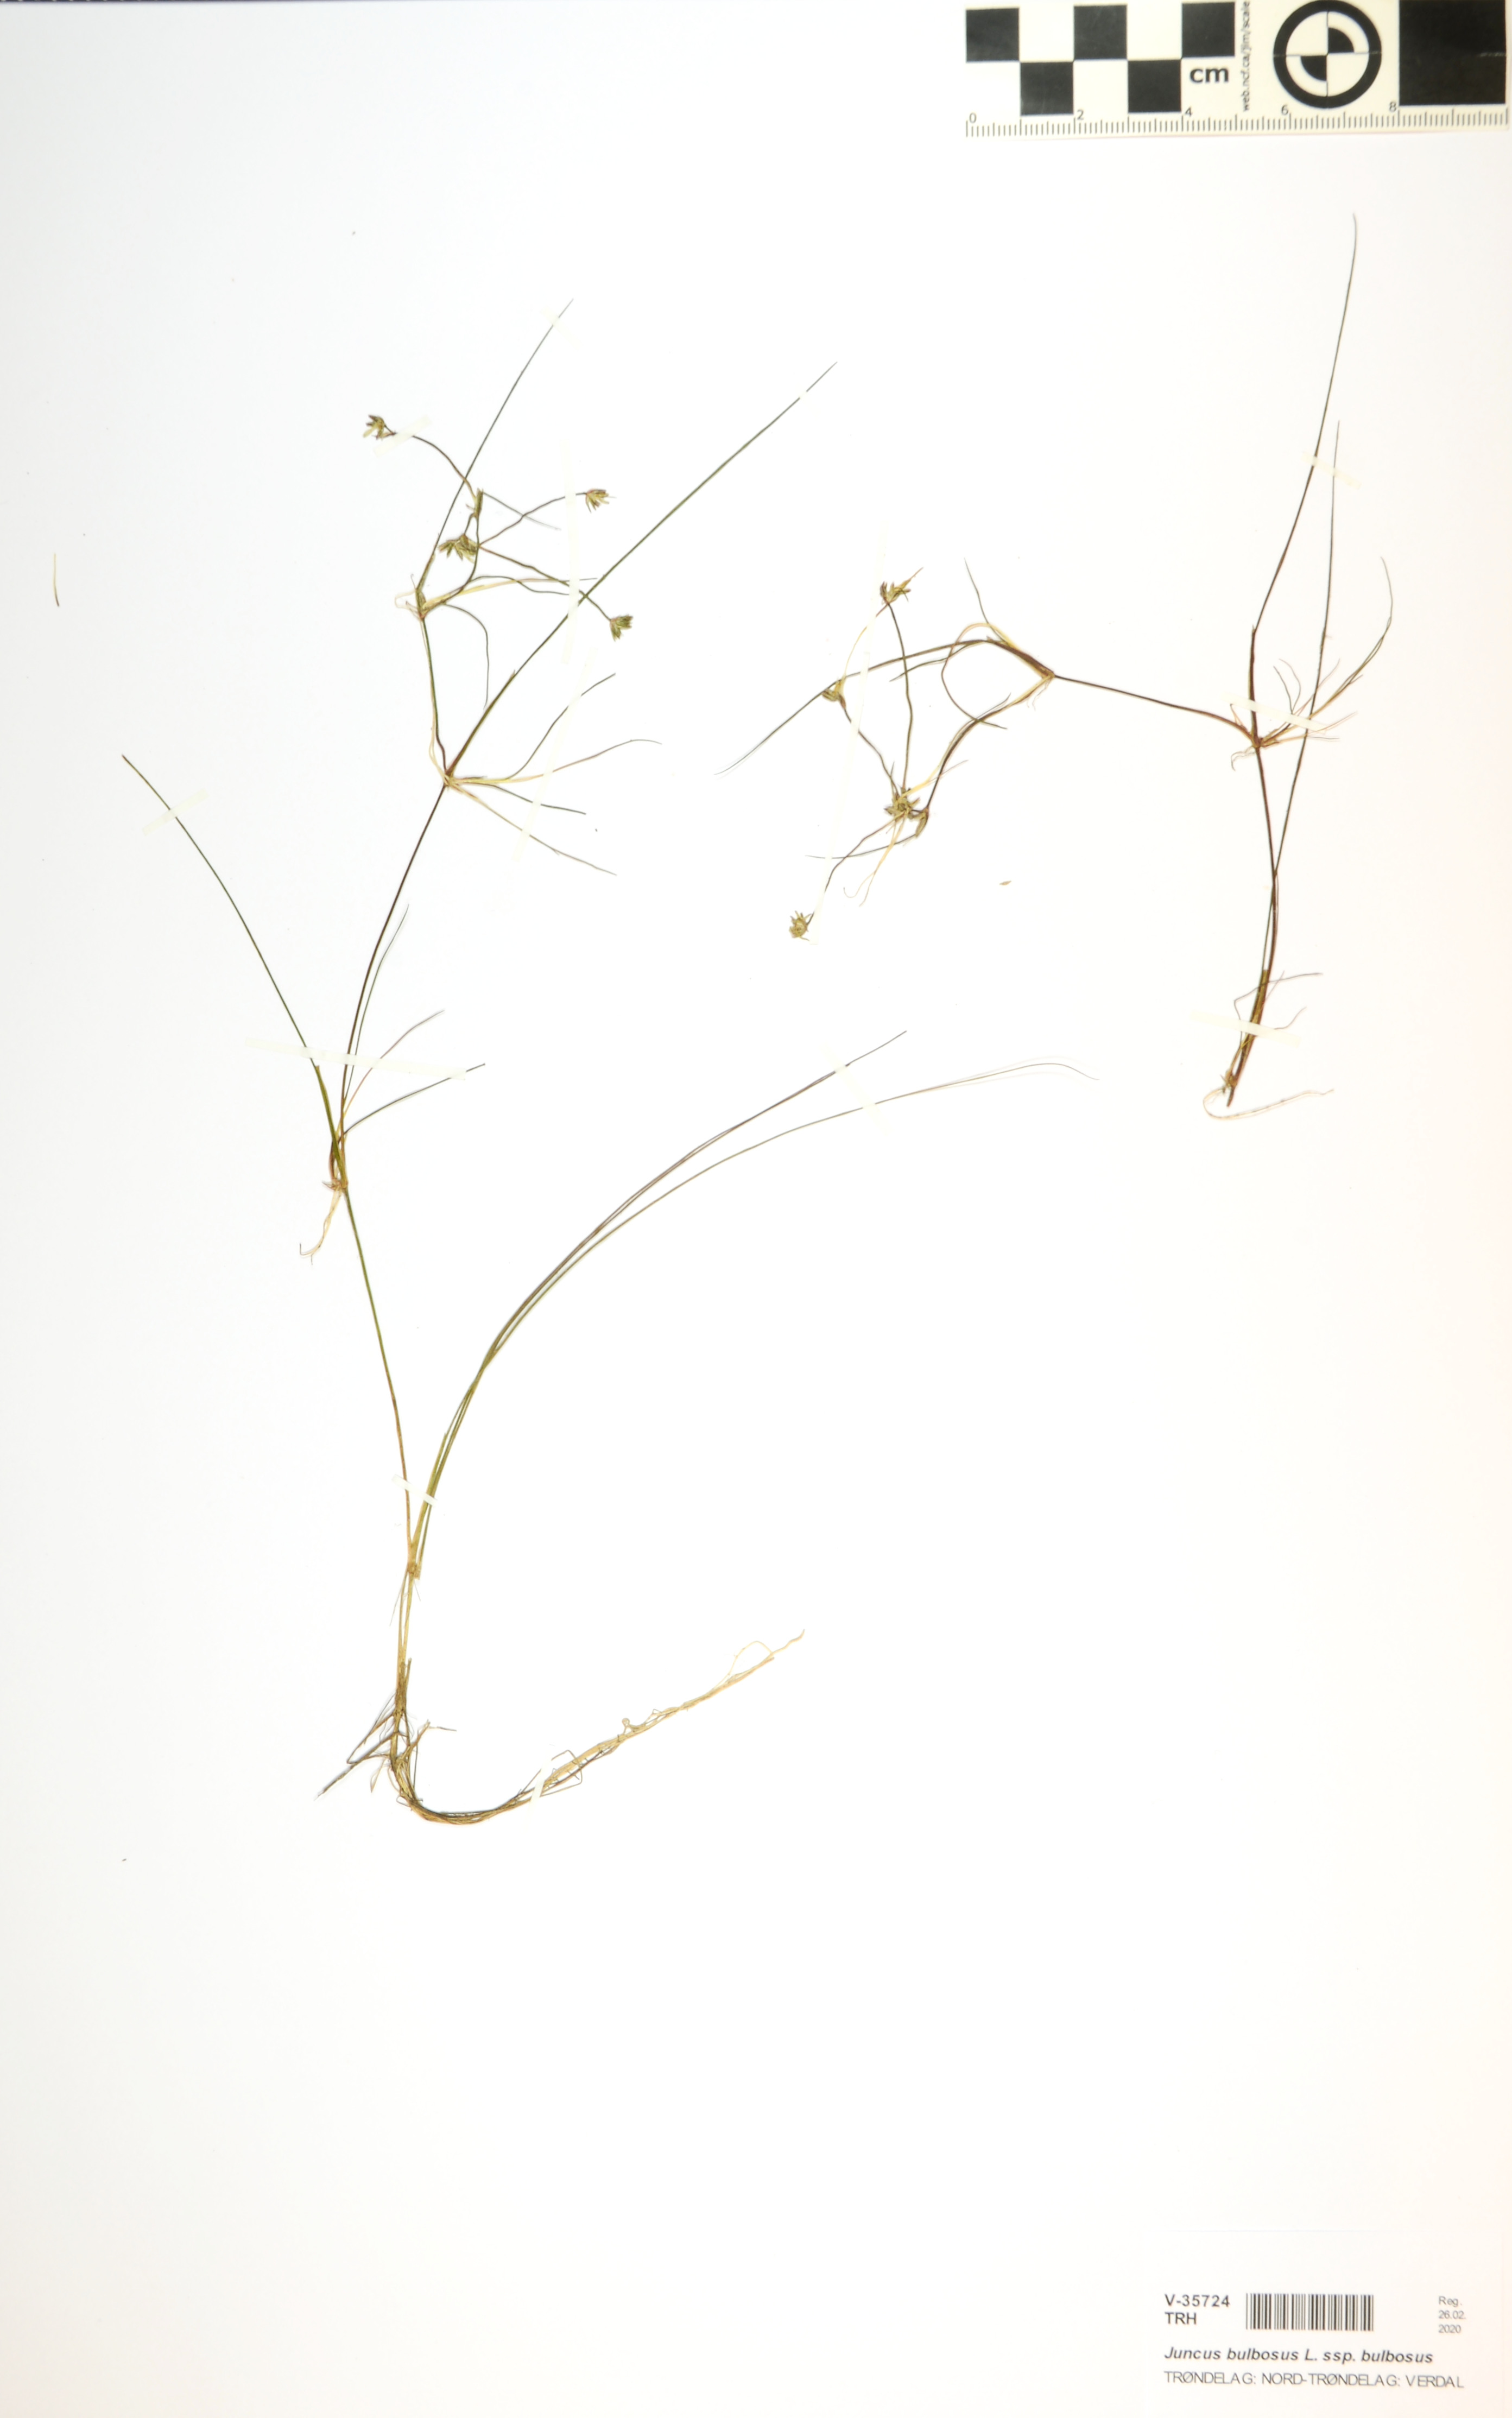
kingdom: Plantae
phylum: Tracheophyta
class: Liliopsida
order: Poales
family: Juncaceae
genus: Juncus
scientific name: Juncus bulbosus
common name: Bulbous rush
